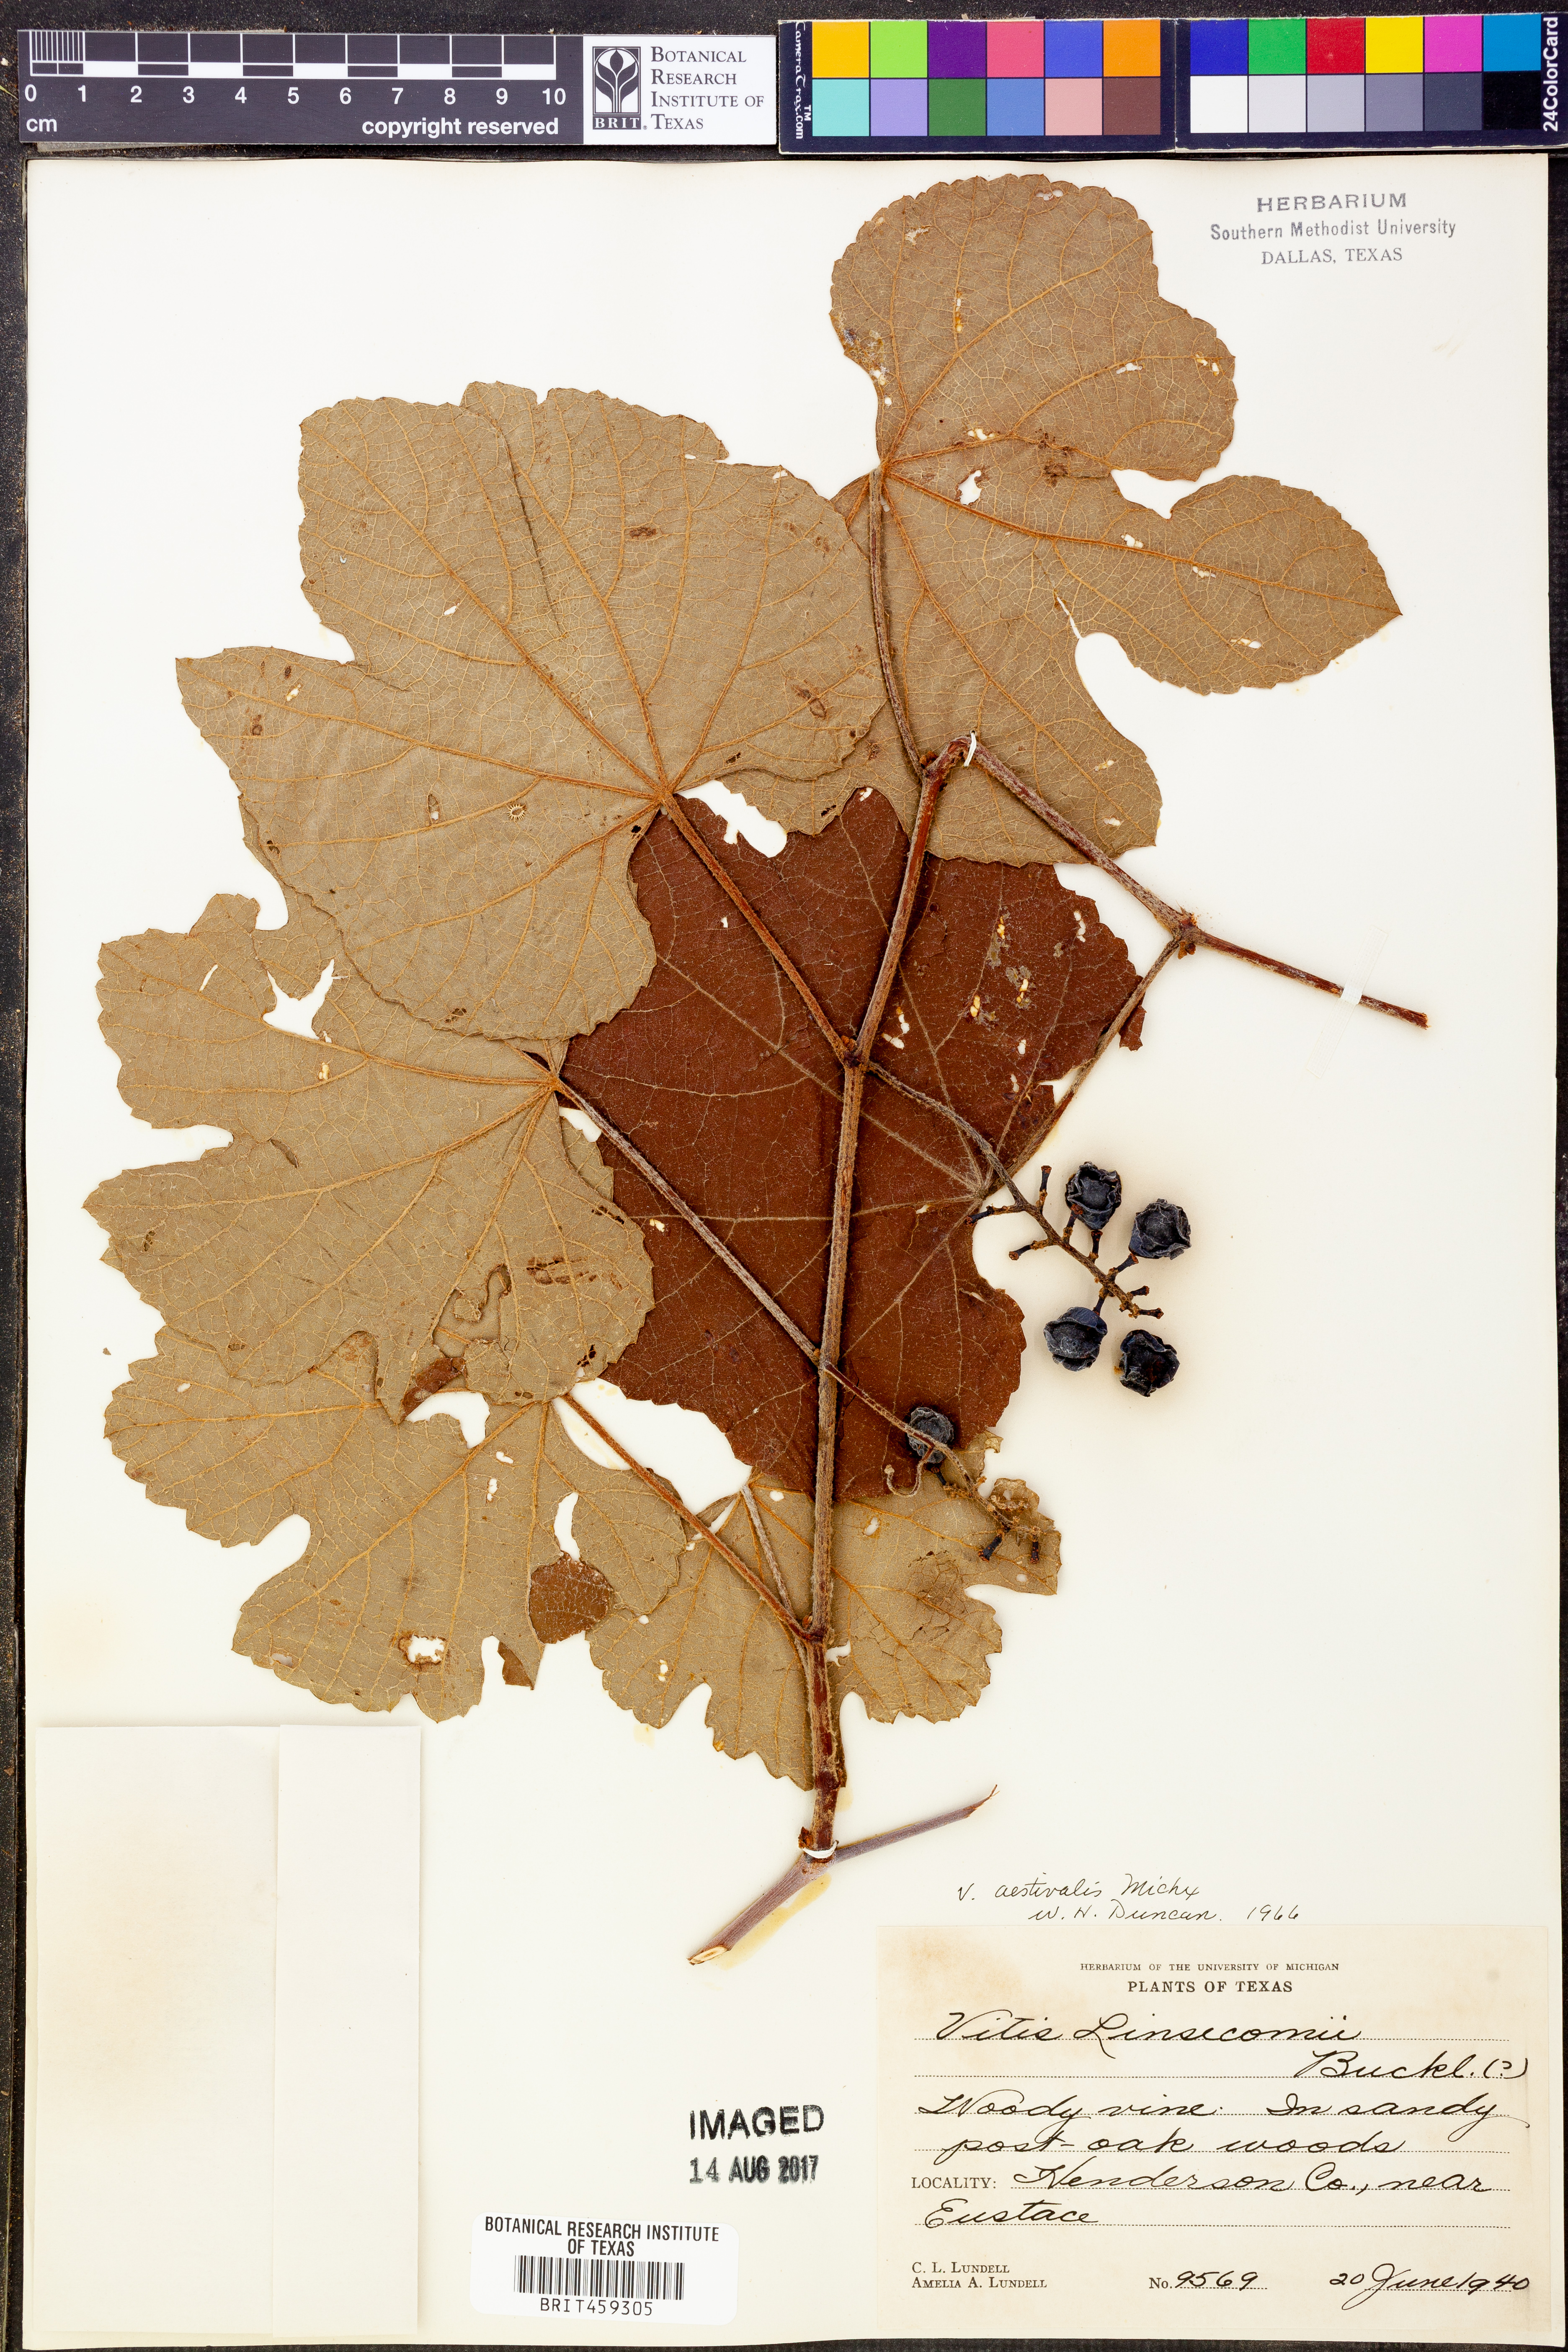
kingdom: Plantae
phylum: Tracheophyta
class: Magnoliopsida
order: Vitales
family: Vitaceae
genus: Vitis
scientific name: Vitis aestivalis
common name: Pigeon grape
